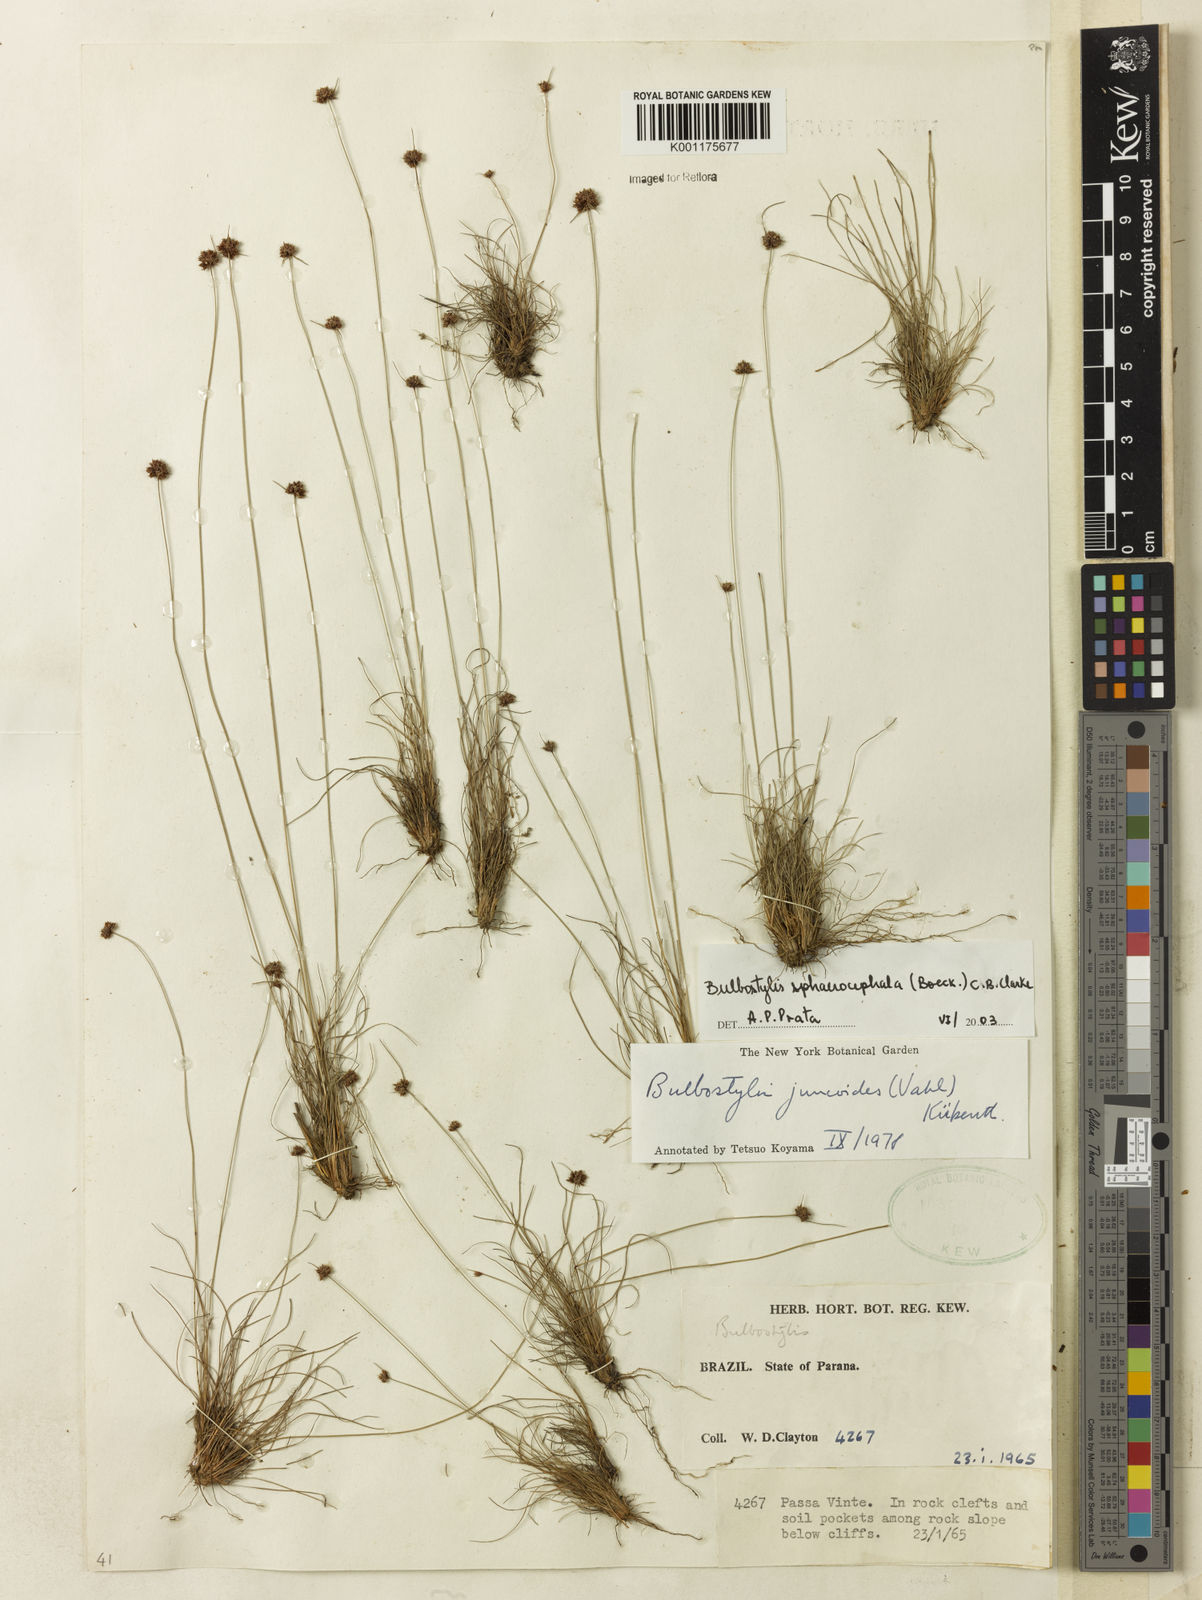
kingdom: Plantae
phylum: Tracheophyta
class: Liliopsida
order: Poales
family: Cyperaceae
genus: Bulbostylis
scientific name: Bulbostylis sphaerocephala
